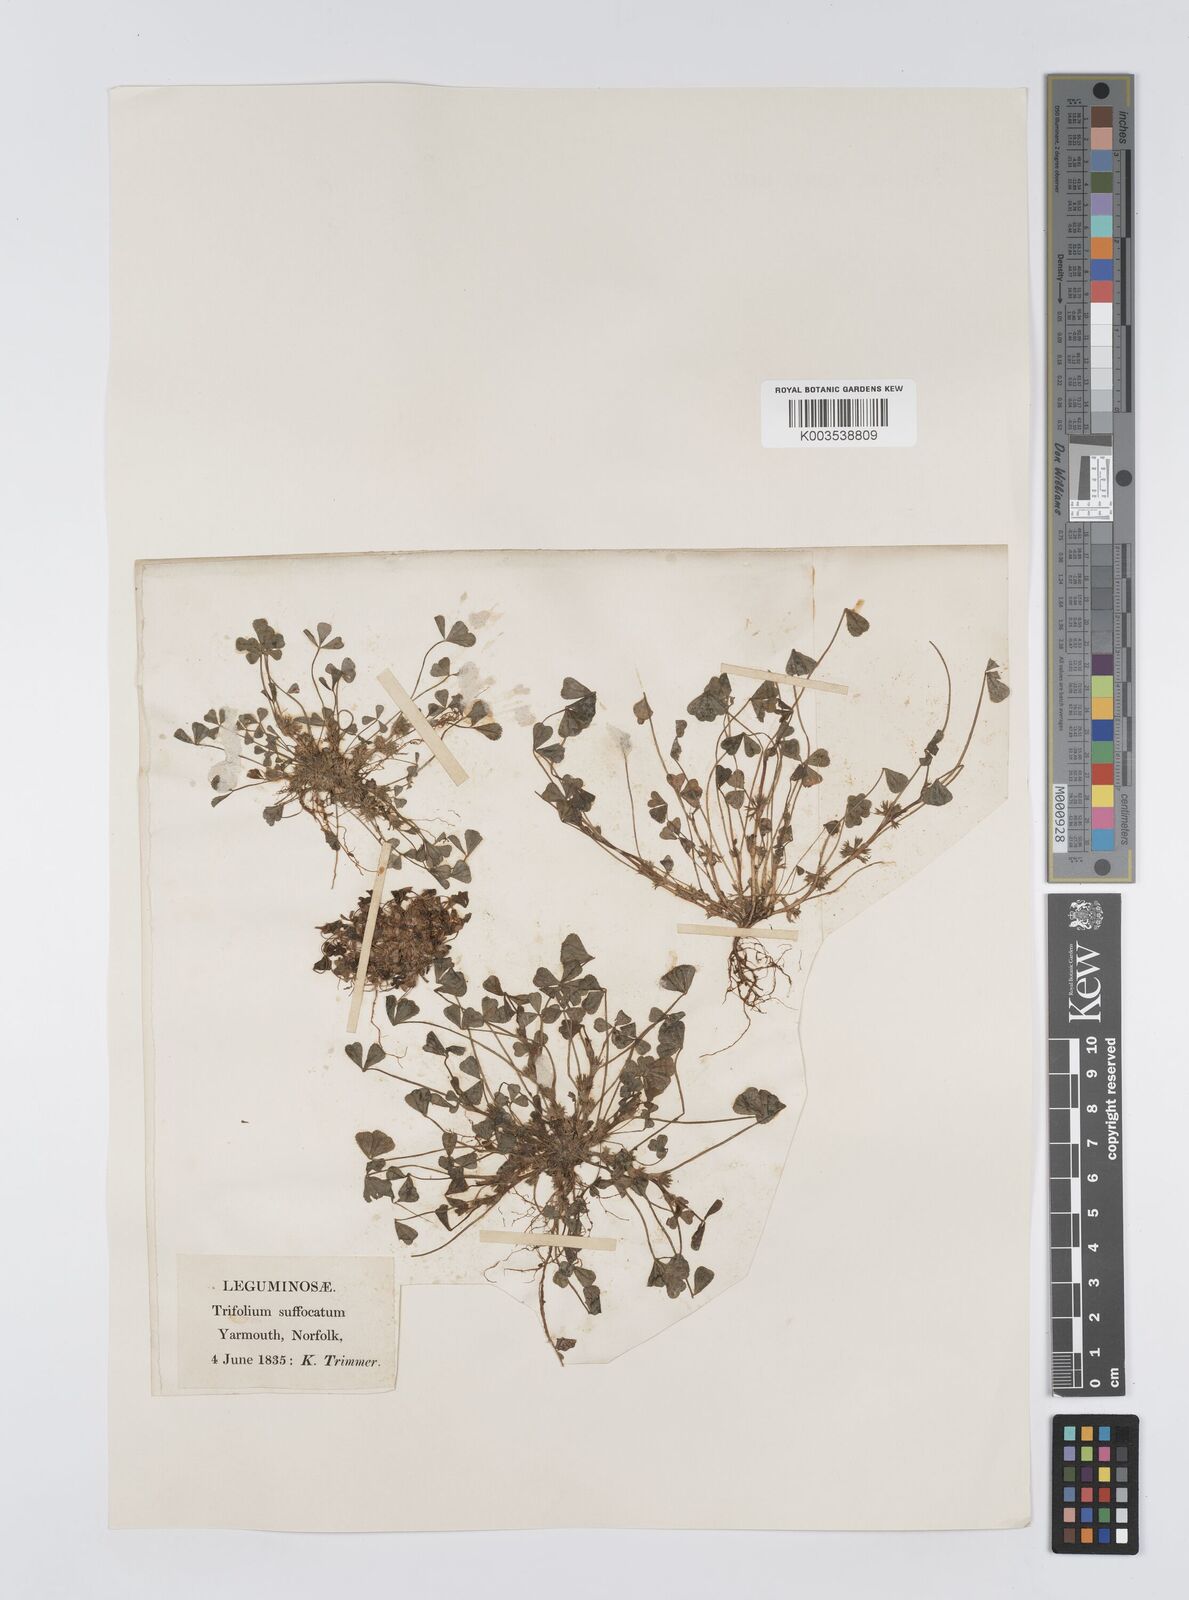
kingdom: Plantae
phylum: Tracheophyta
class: Magnoliopsida
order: Fabales
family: Fabaceae
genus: Trifolium
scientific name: Trifolium suffocatum
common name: Suffocated clover
